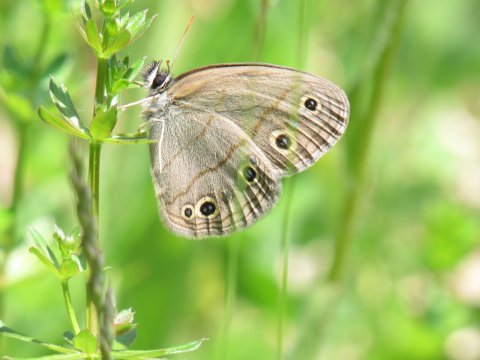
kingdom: Animalia
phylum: Arthropoda
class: Insecta
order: Lepidoptera
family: Nymphalidae
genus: Euptychia
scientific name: Euptychia cymela
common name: Little Wood Satyr
